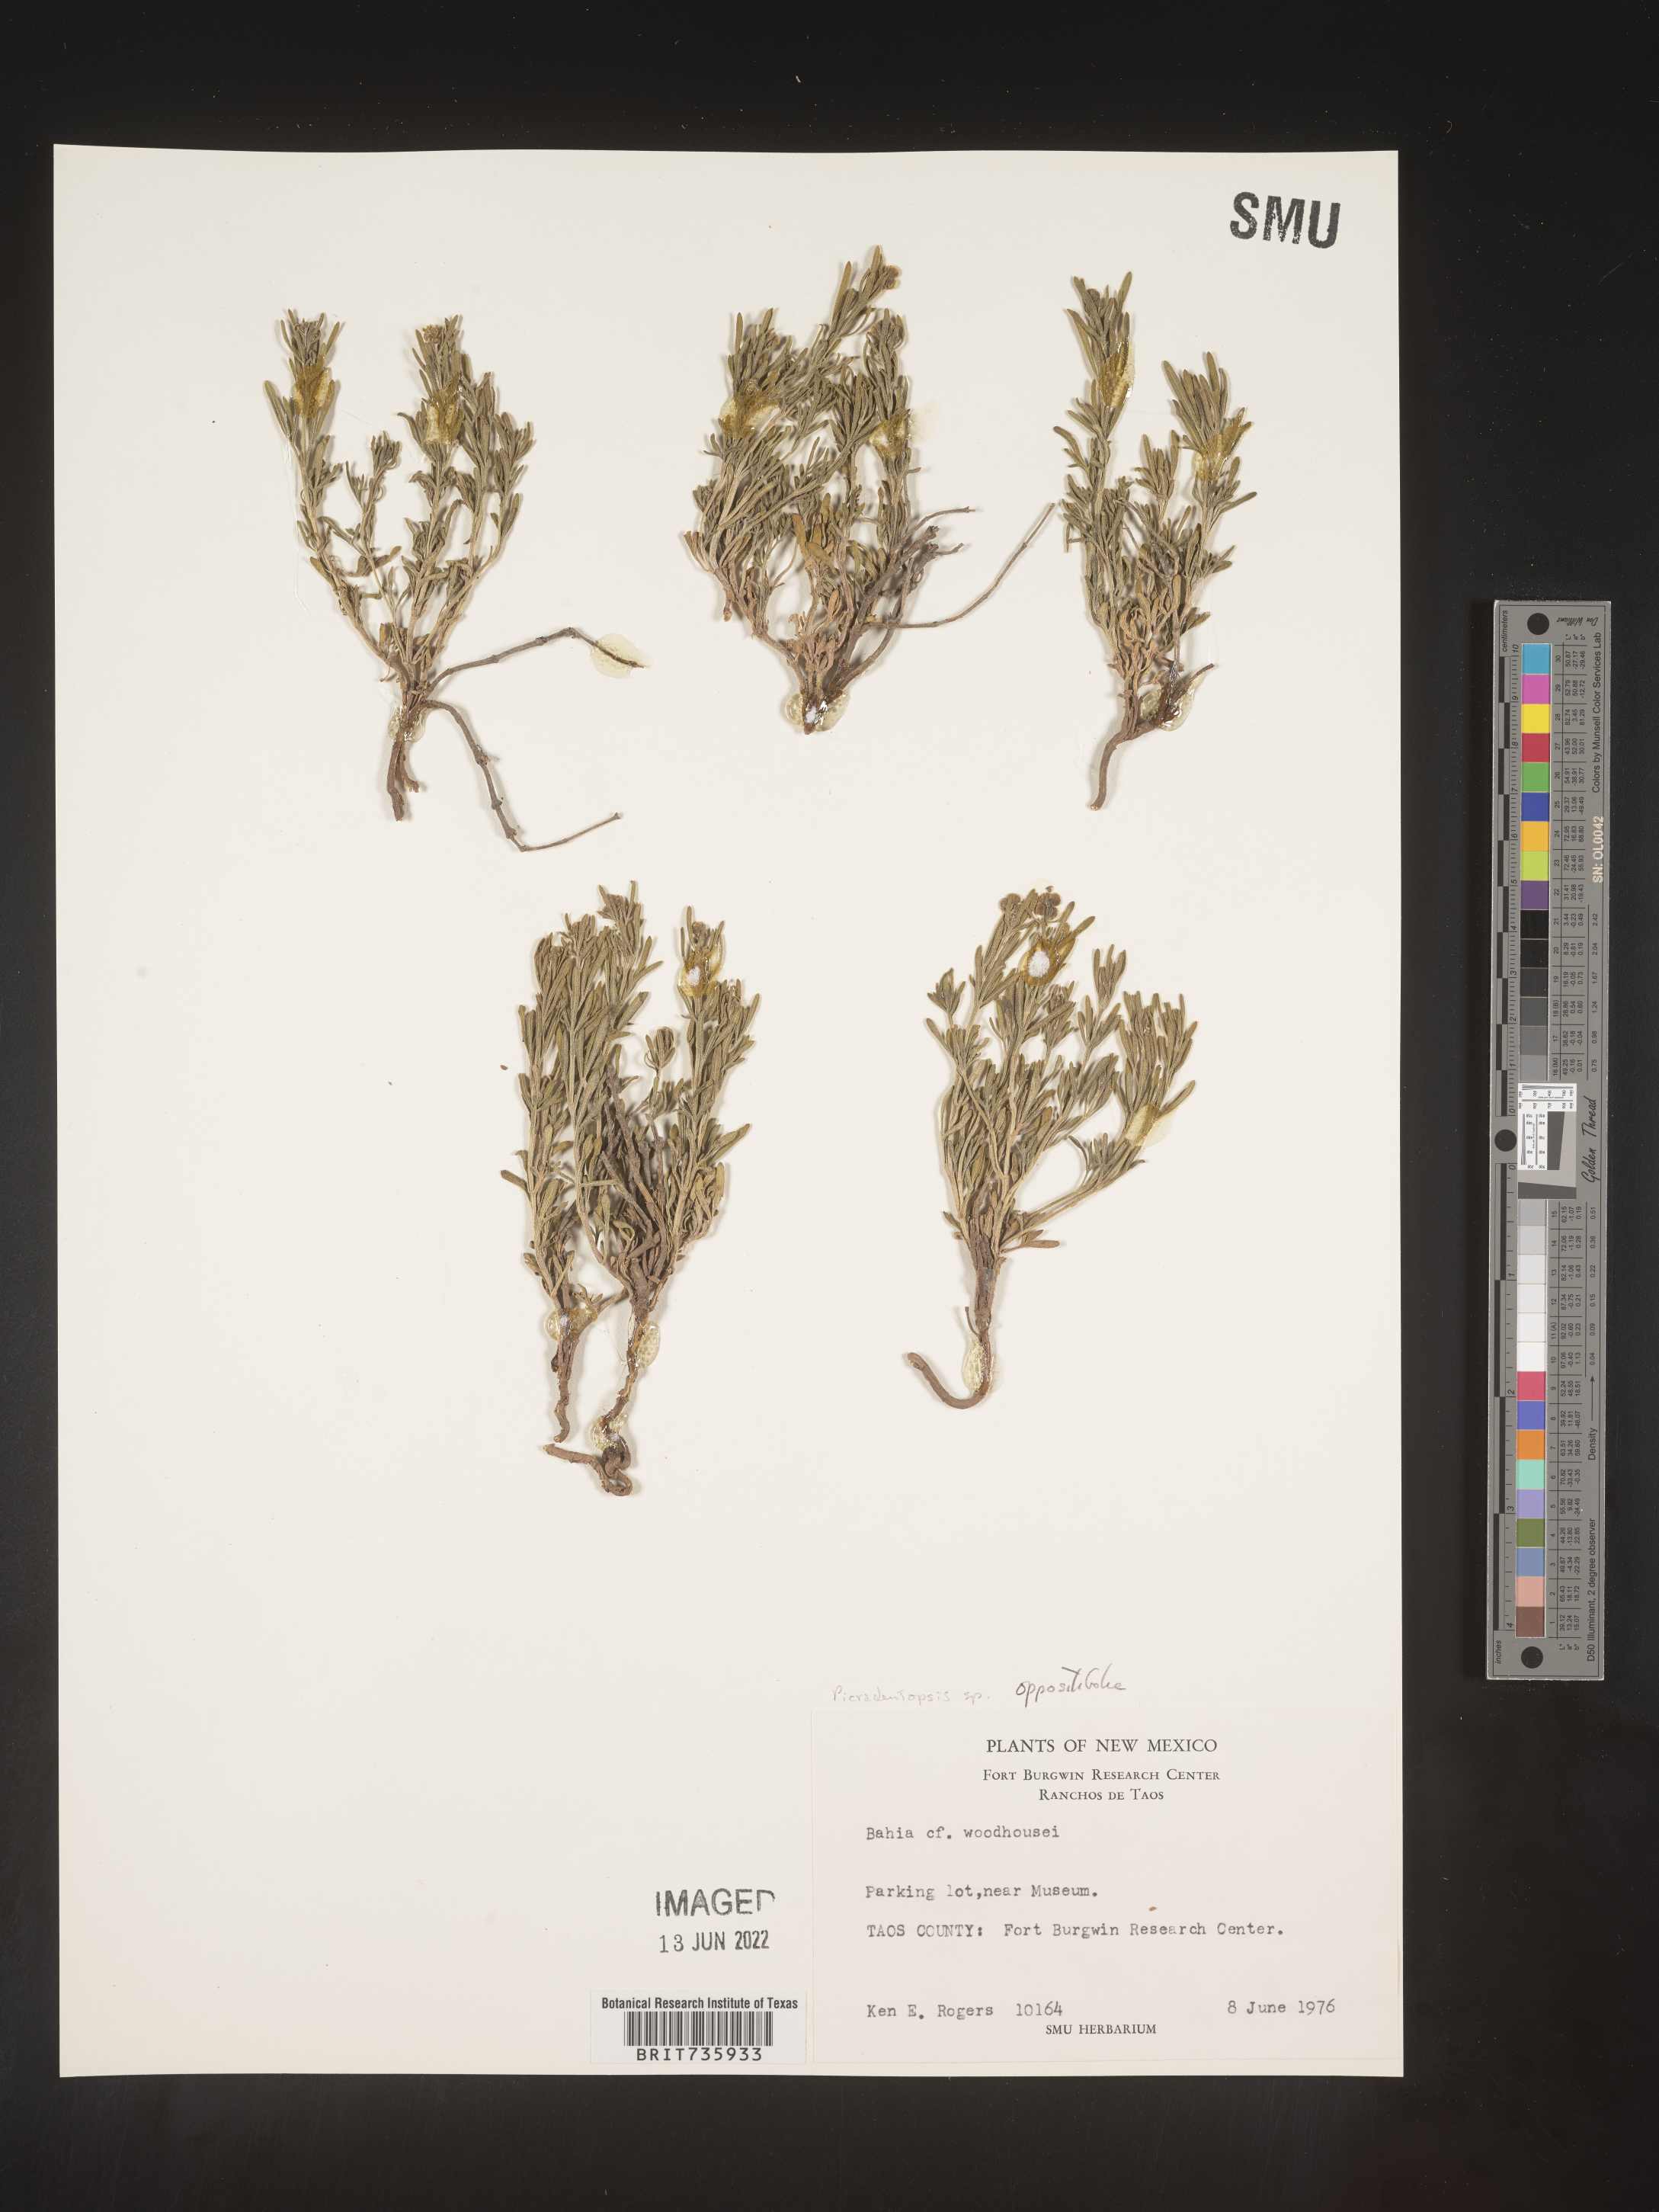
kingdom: Plantae
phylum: Tracheophyta
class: Magnoliopsida
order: Asterales
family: Asteraceae
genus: Bahia
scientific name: Bahia oppositifolia
